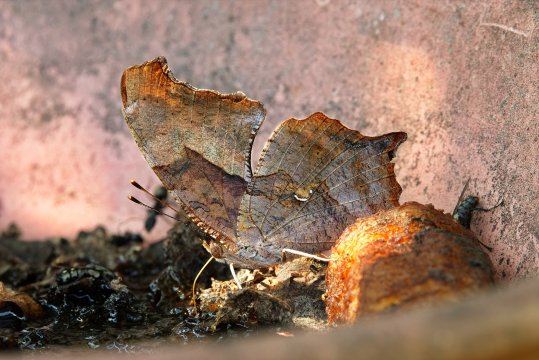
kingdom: Animalia
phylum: Arthropoda
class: Insecta
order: Lepidoptera
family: Nymphalidae
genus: Polygonia
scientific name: Polygonia interrogationis
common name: Question Mark
